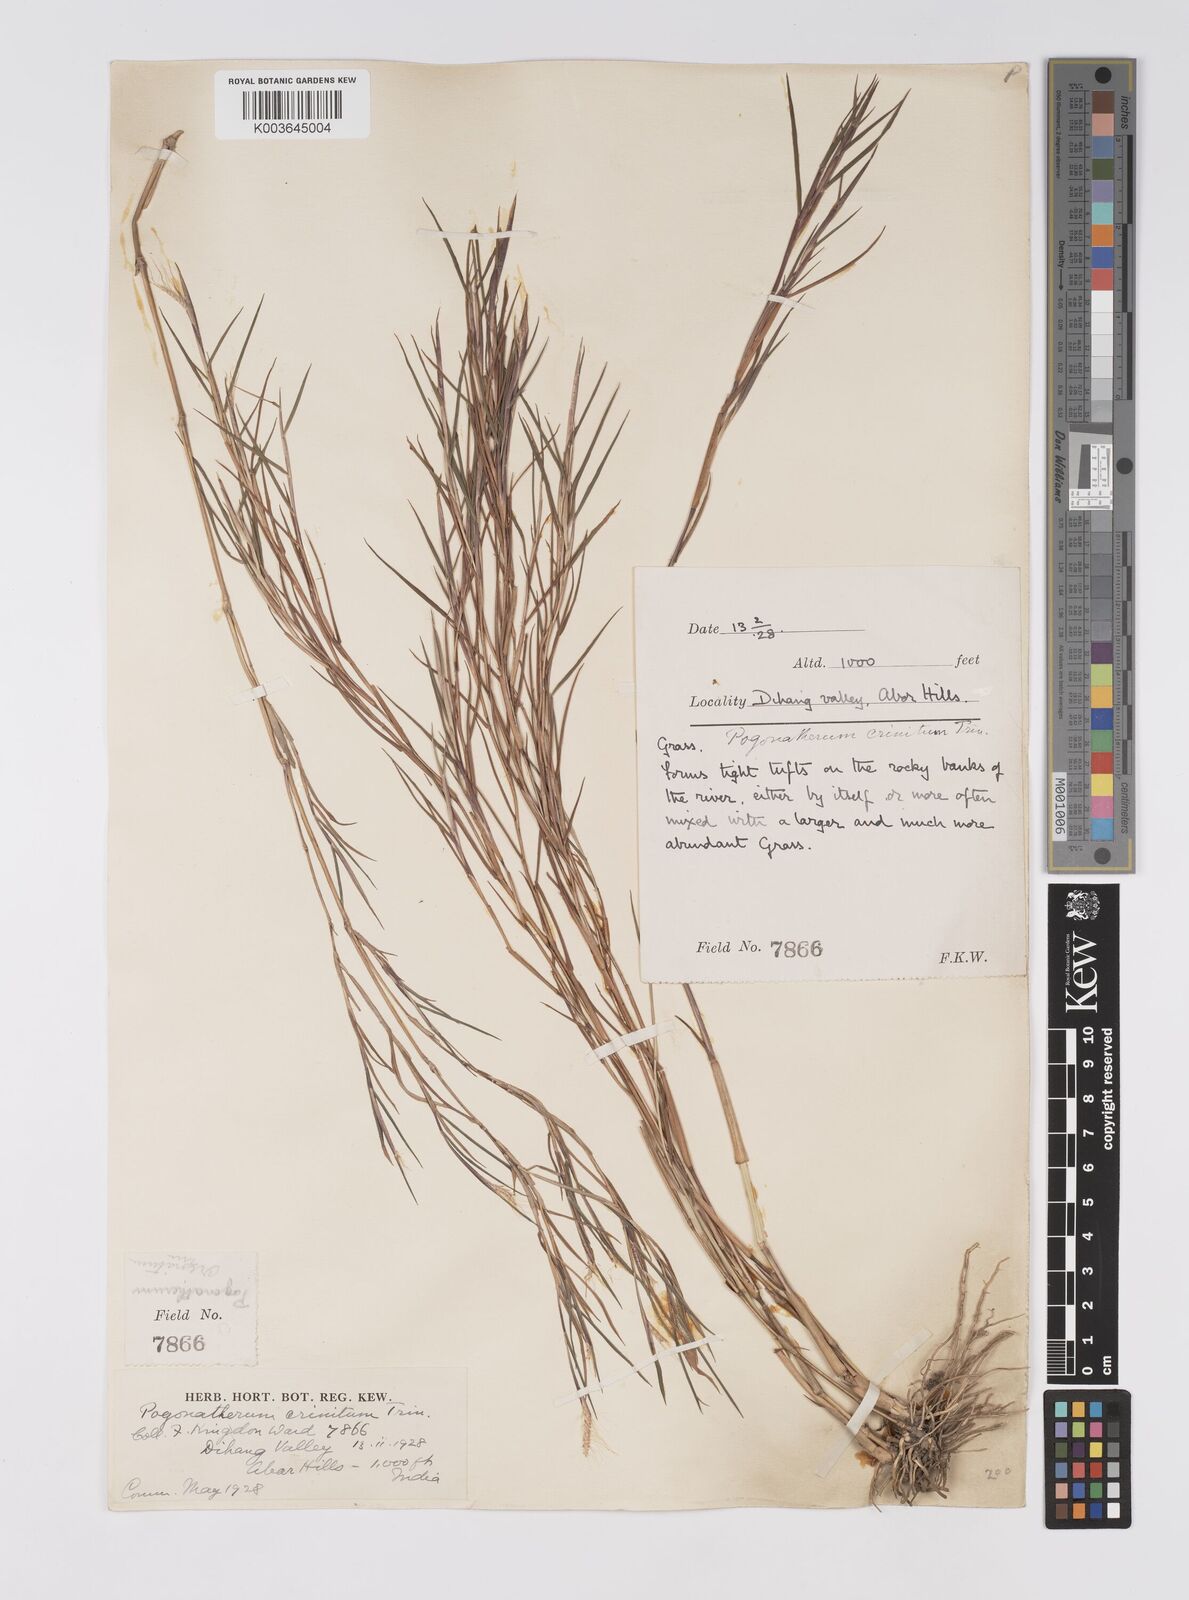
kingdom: Plantae
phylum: Tracheophyta
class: Liliopsida
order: Poales
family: Poaceae
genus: Pogonatherum
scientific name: Pogonatherum crinitum
